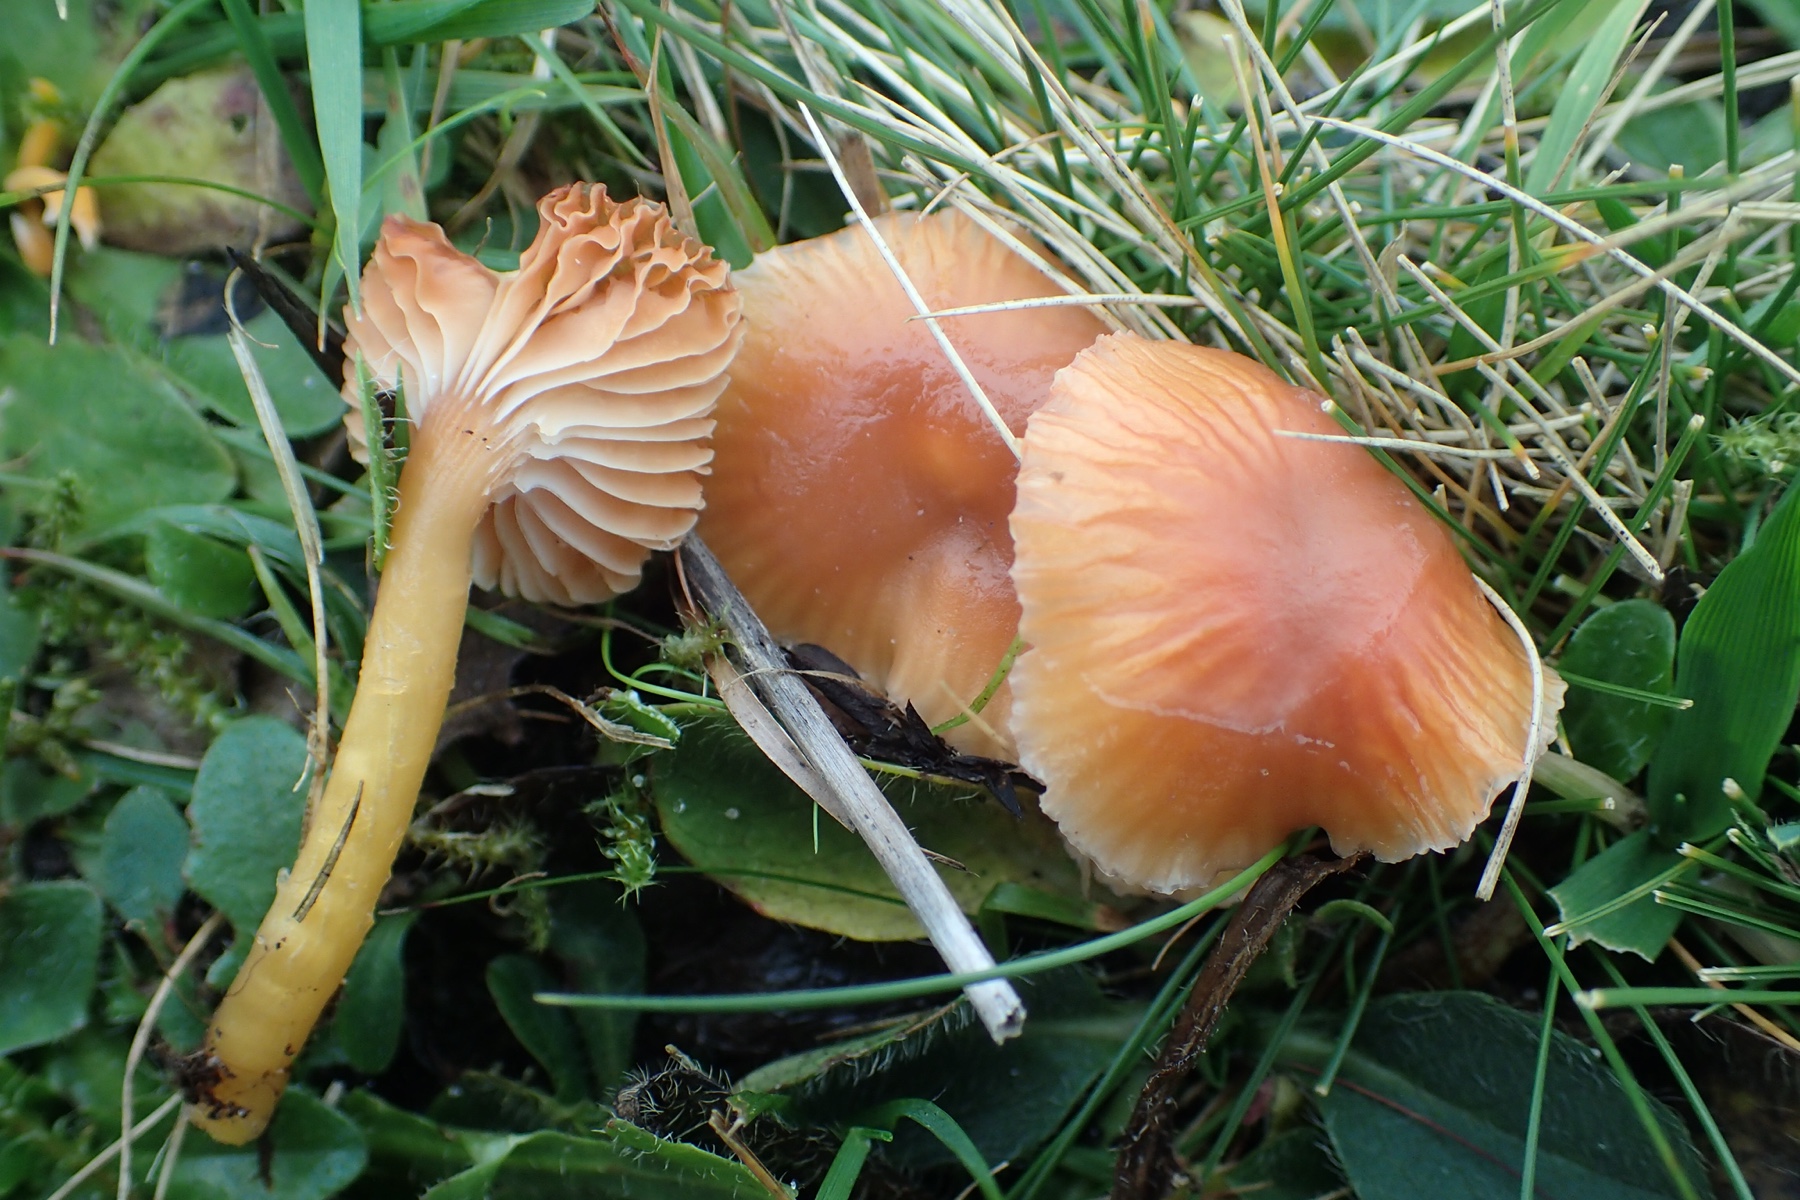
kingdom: Fungi
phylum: Basidiomycota
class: Agaricomycetes
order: Agaricales
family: Hygrophoraceae
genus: Gliophorus
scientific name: Gliophorus laetus
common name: brusk-vokshat
